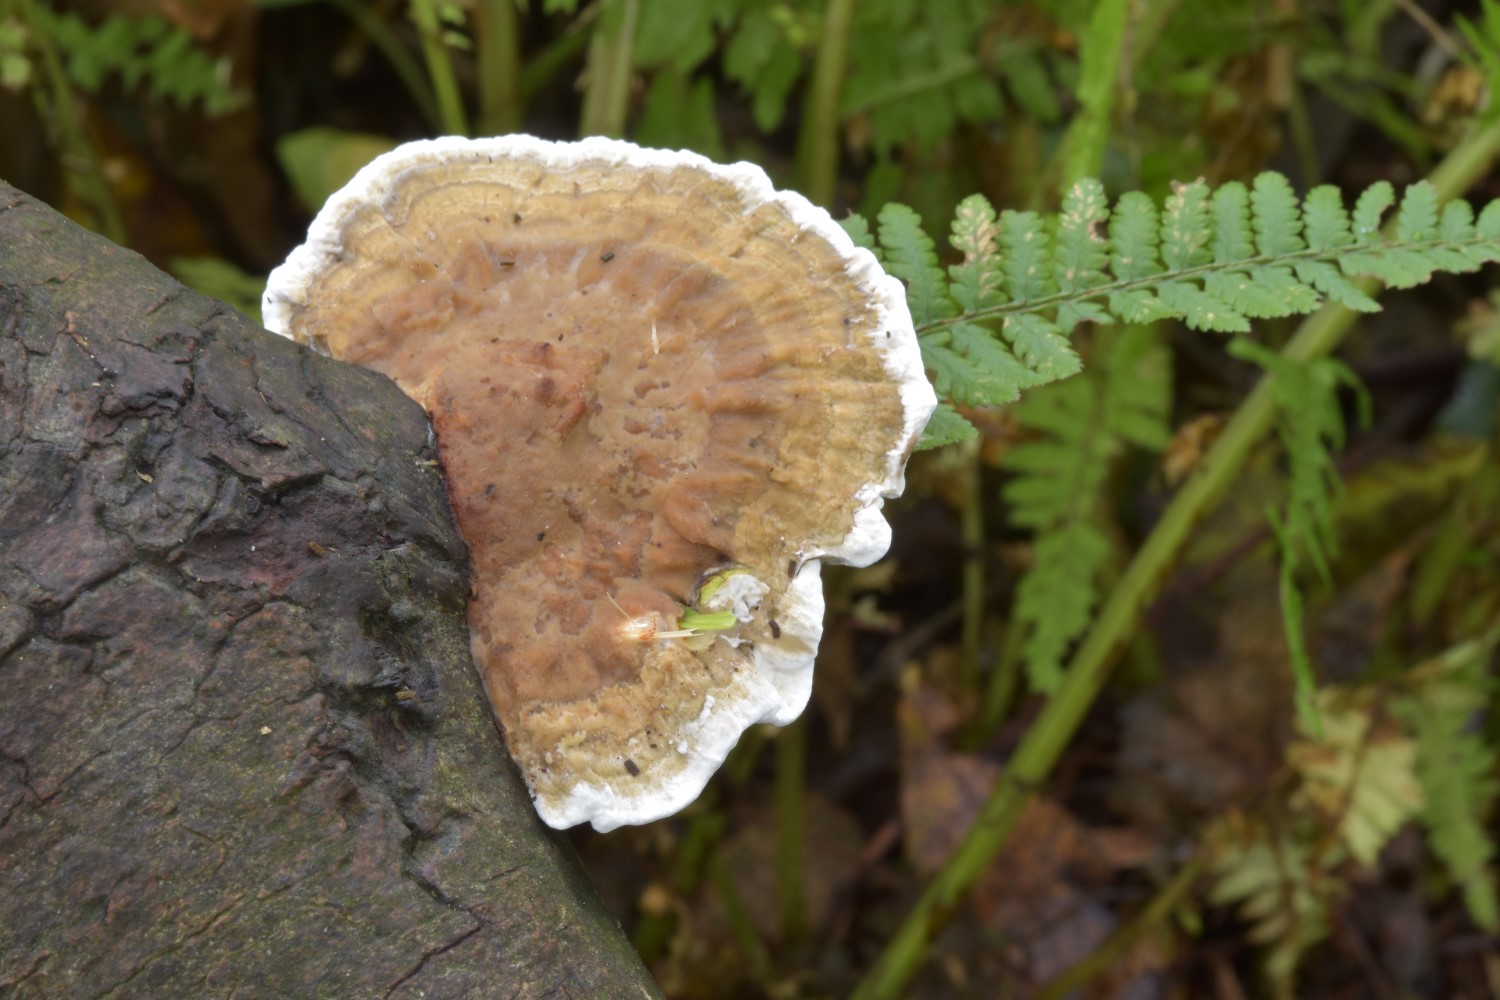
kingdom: Fungi
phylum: Basidiomycota
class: Agaricomycetes
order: Polyporales
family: Polyporaceae
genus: Daedaleopsis
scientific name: Daedaleopsis confragosa
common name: rødmende læderporesvamp
